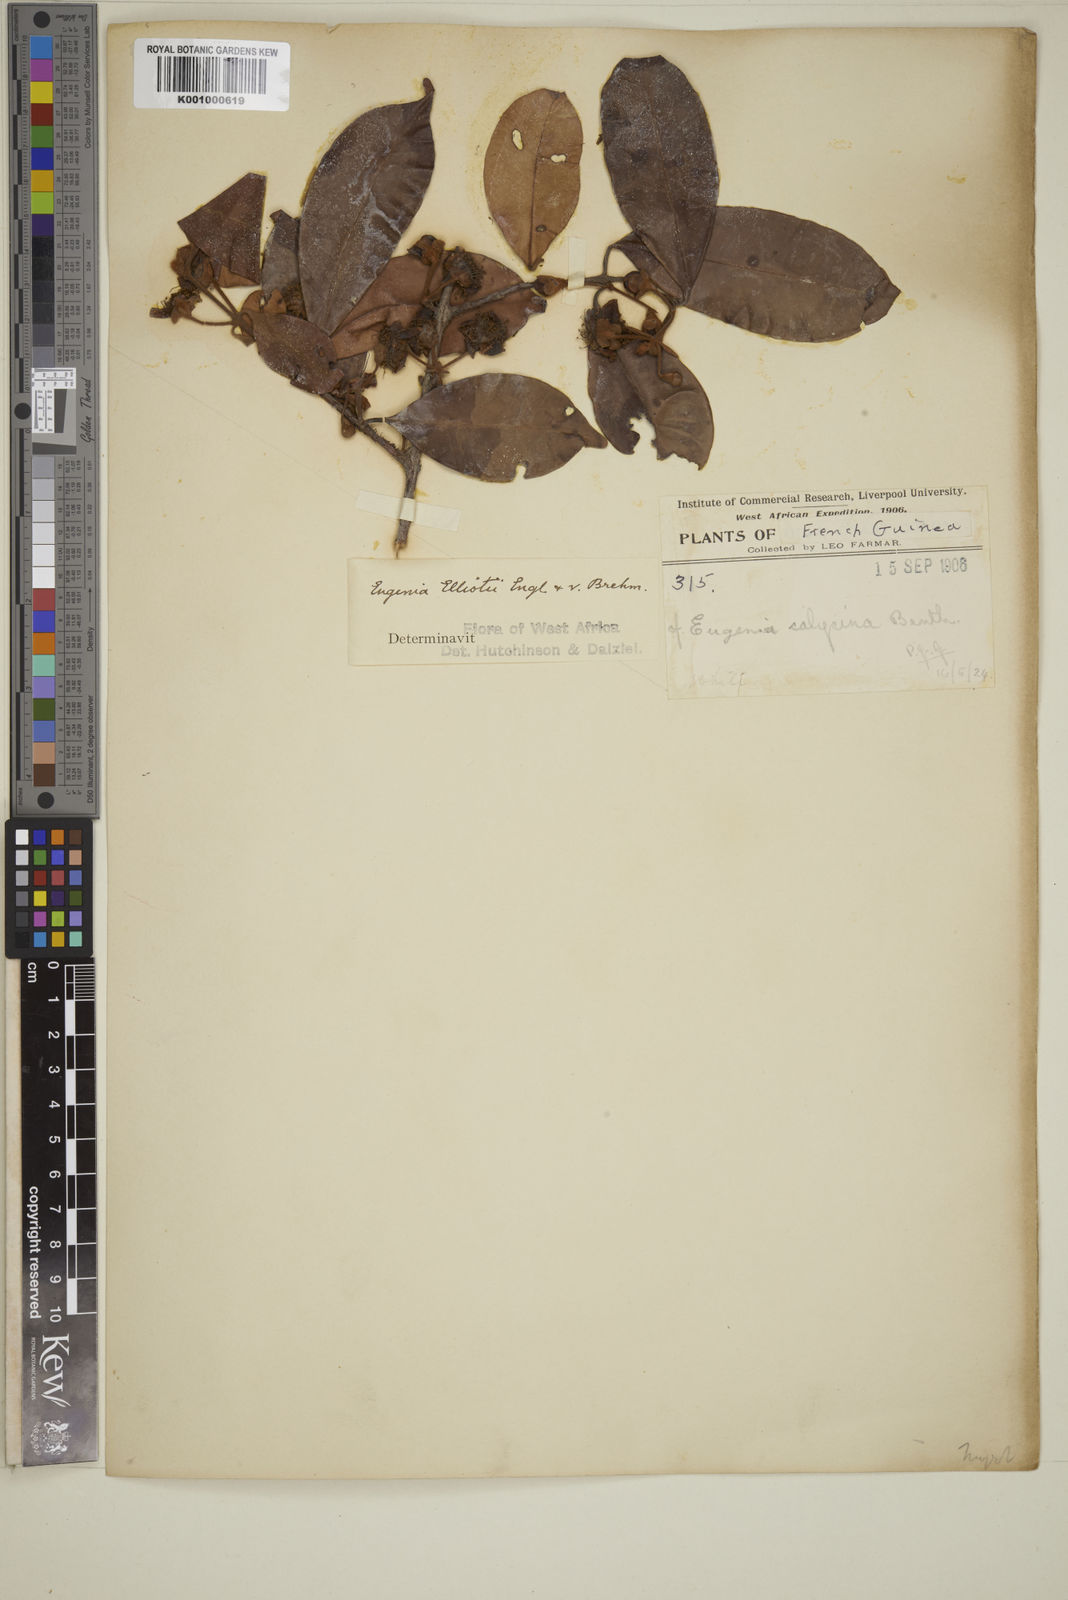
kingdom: Plantae
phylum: Tracheophyta
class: Magnoliopsida
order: Myrtales
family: Myrtaceae
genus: Eugenia
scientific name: Eugenia elliotii
